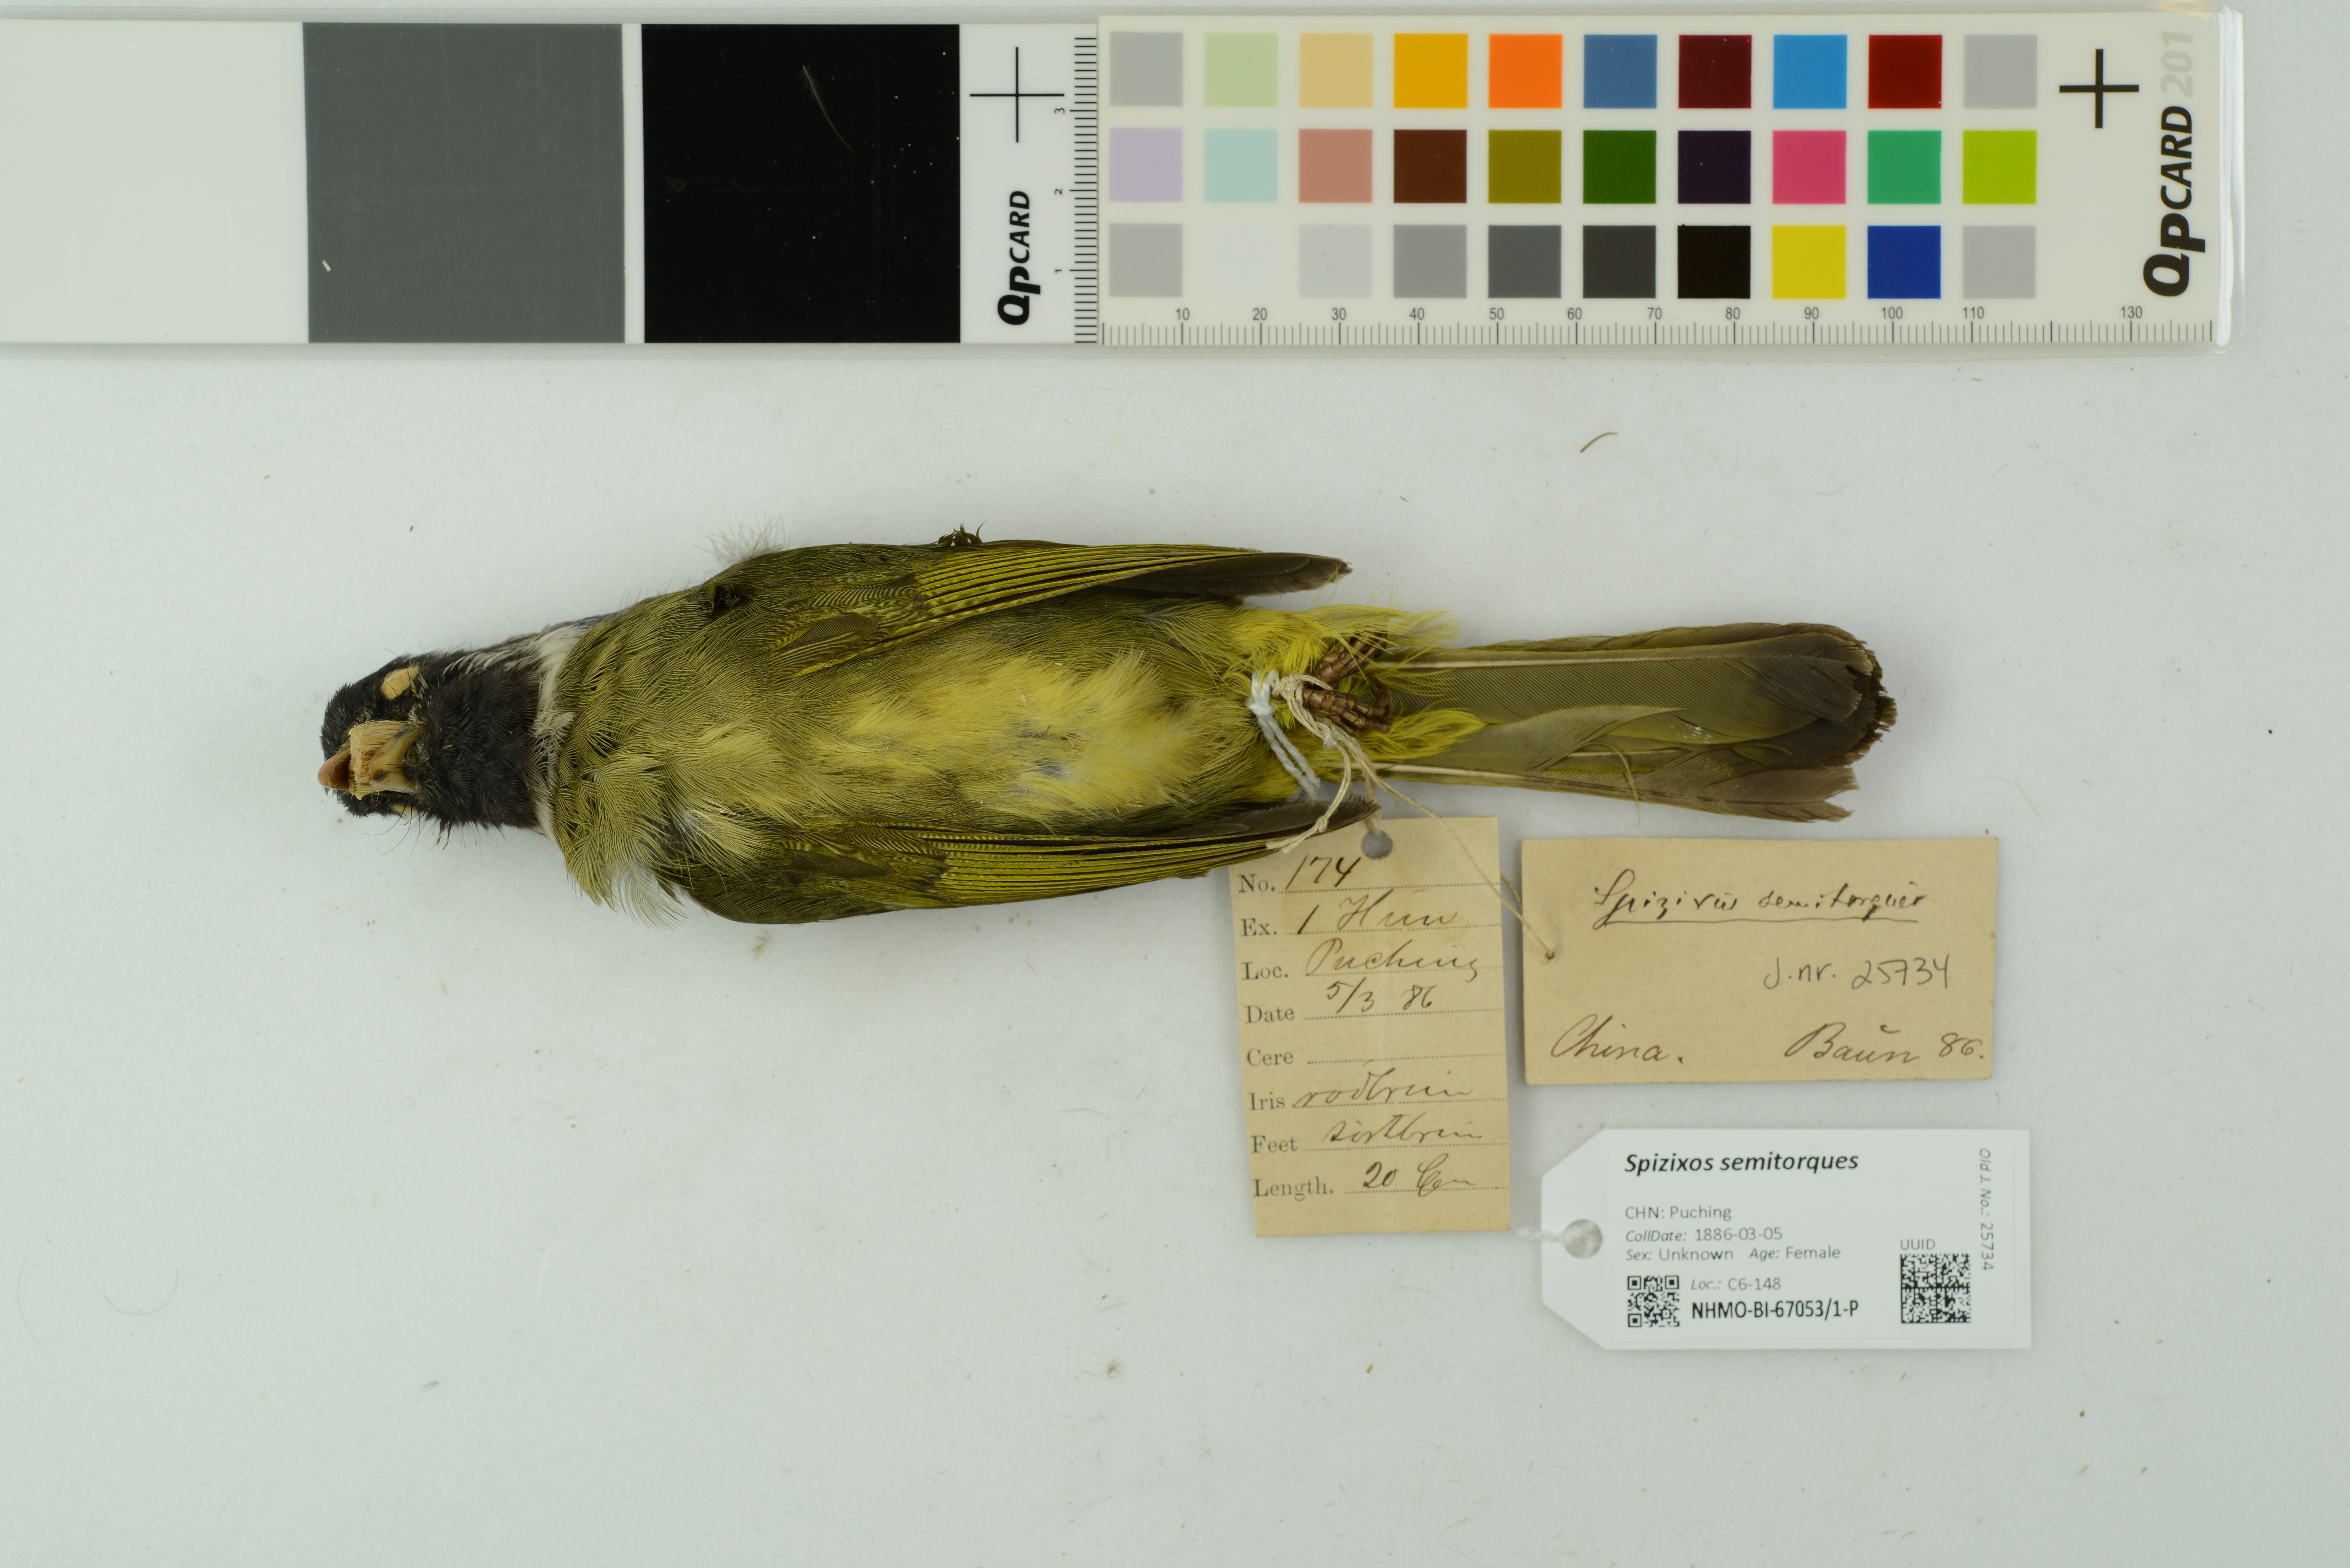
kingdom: Animalia
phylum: Chordata
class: Aves
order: Passeriformes
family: Pycnonotidae
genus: Spizixos
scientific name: Spizixos semitorques
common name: Collared finchbill
